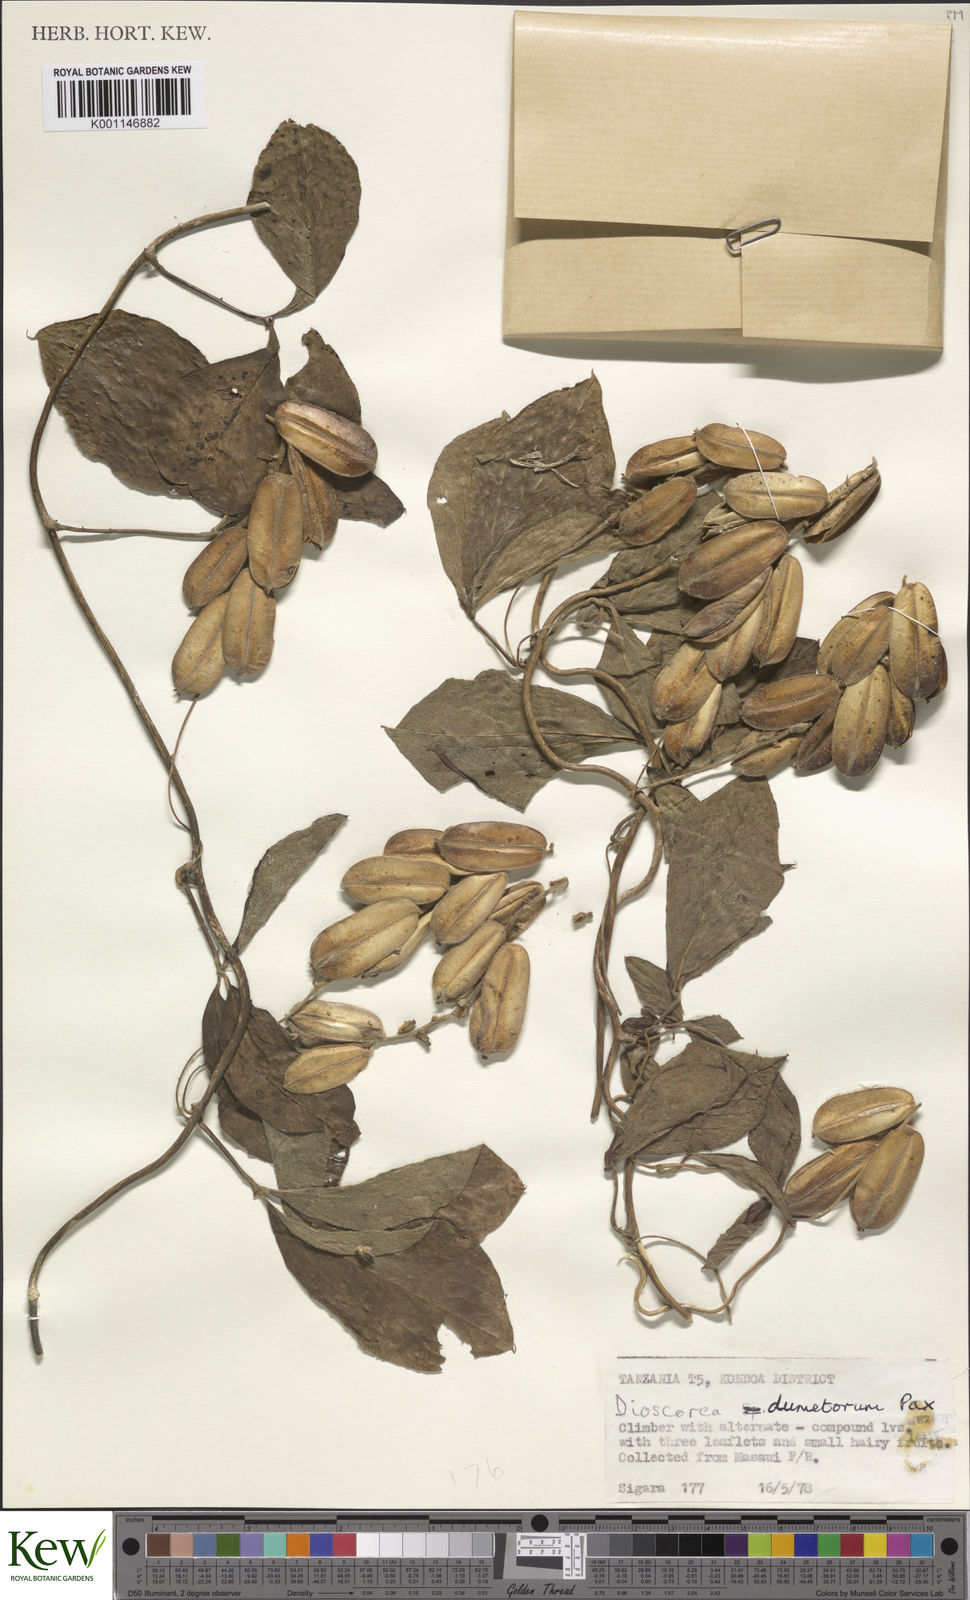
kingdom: Plantae
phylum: Tracheophyta
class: Liliopsida
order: Dioscoreales
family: Dioscoreaceae
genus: Dioscorea
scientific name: Dioscorea dumetorum
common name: African bitter yam
